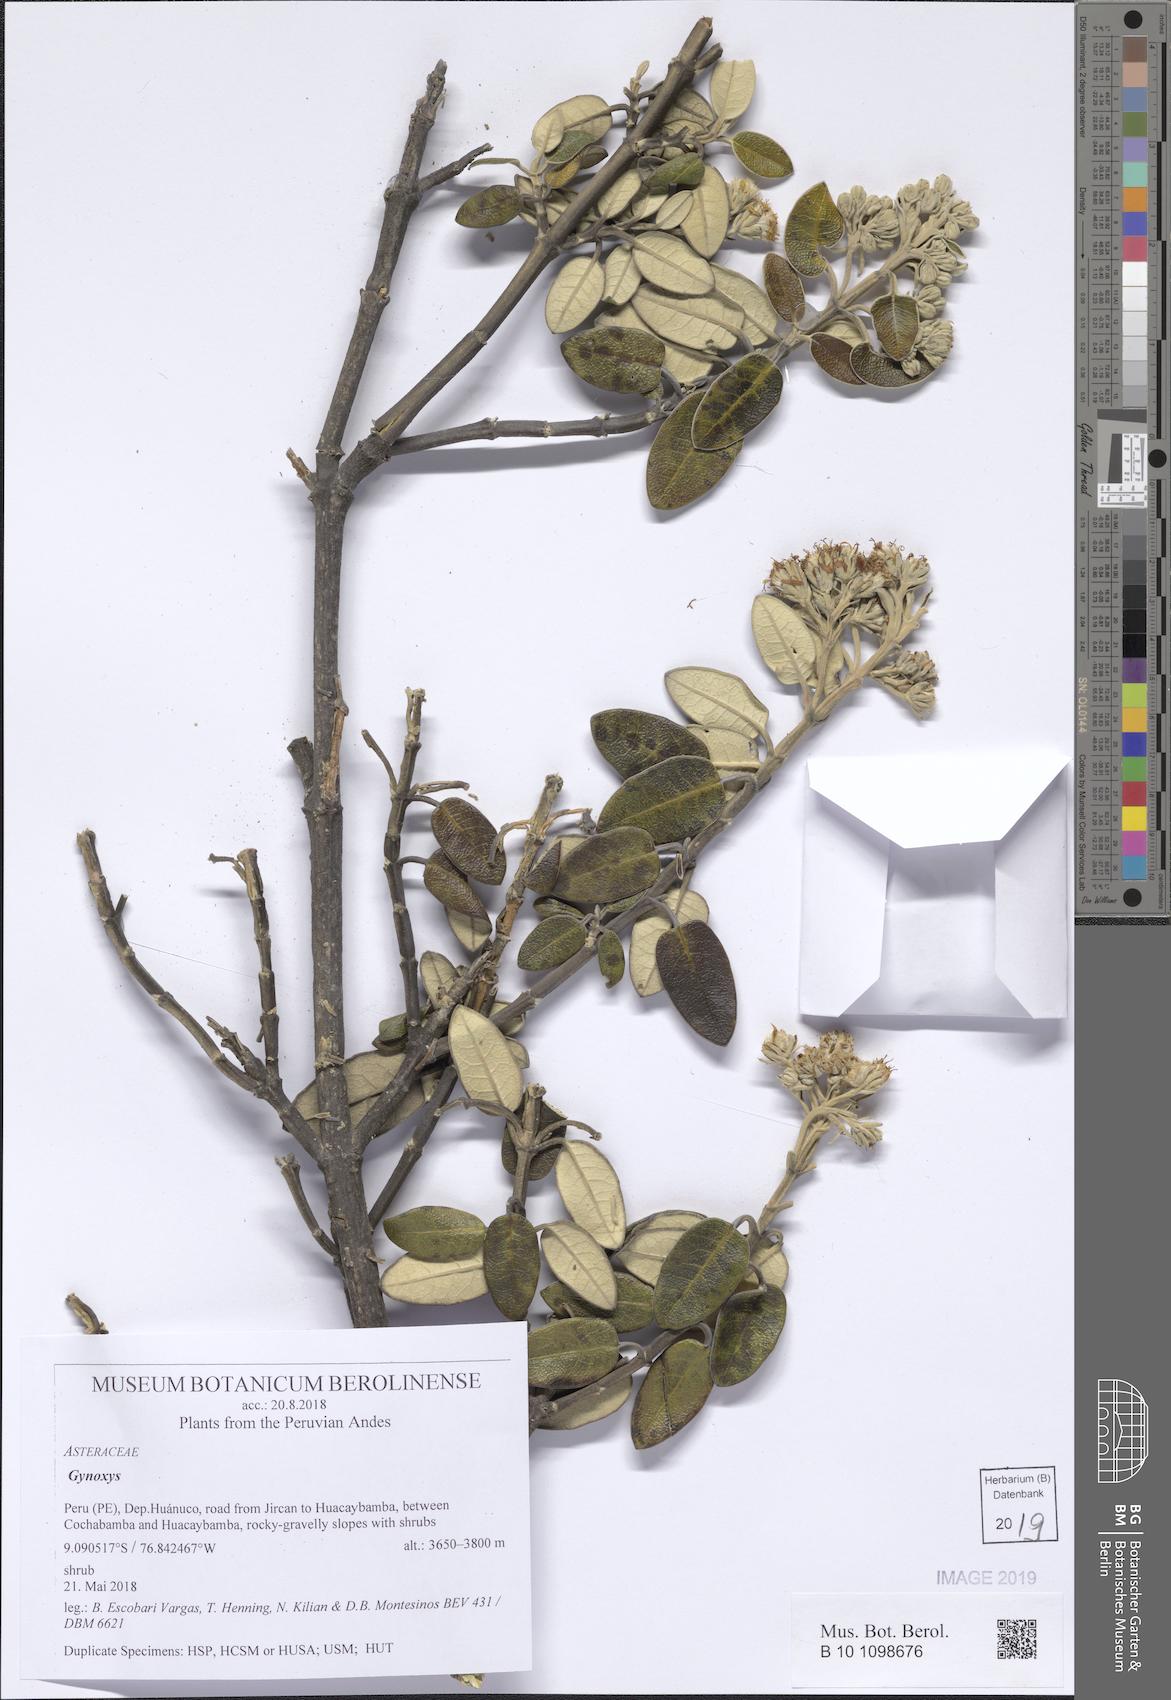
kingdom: Plantae
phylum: Tracheophyta
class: Magnoliopsida
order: Asterales
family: Asteraceae
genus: Gynoxys
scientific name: Gynoxys
